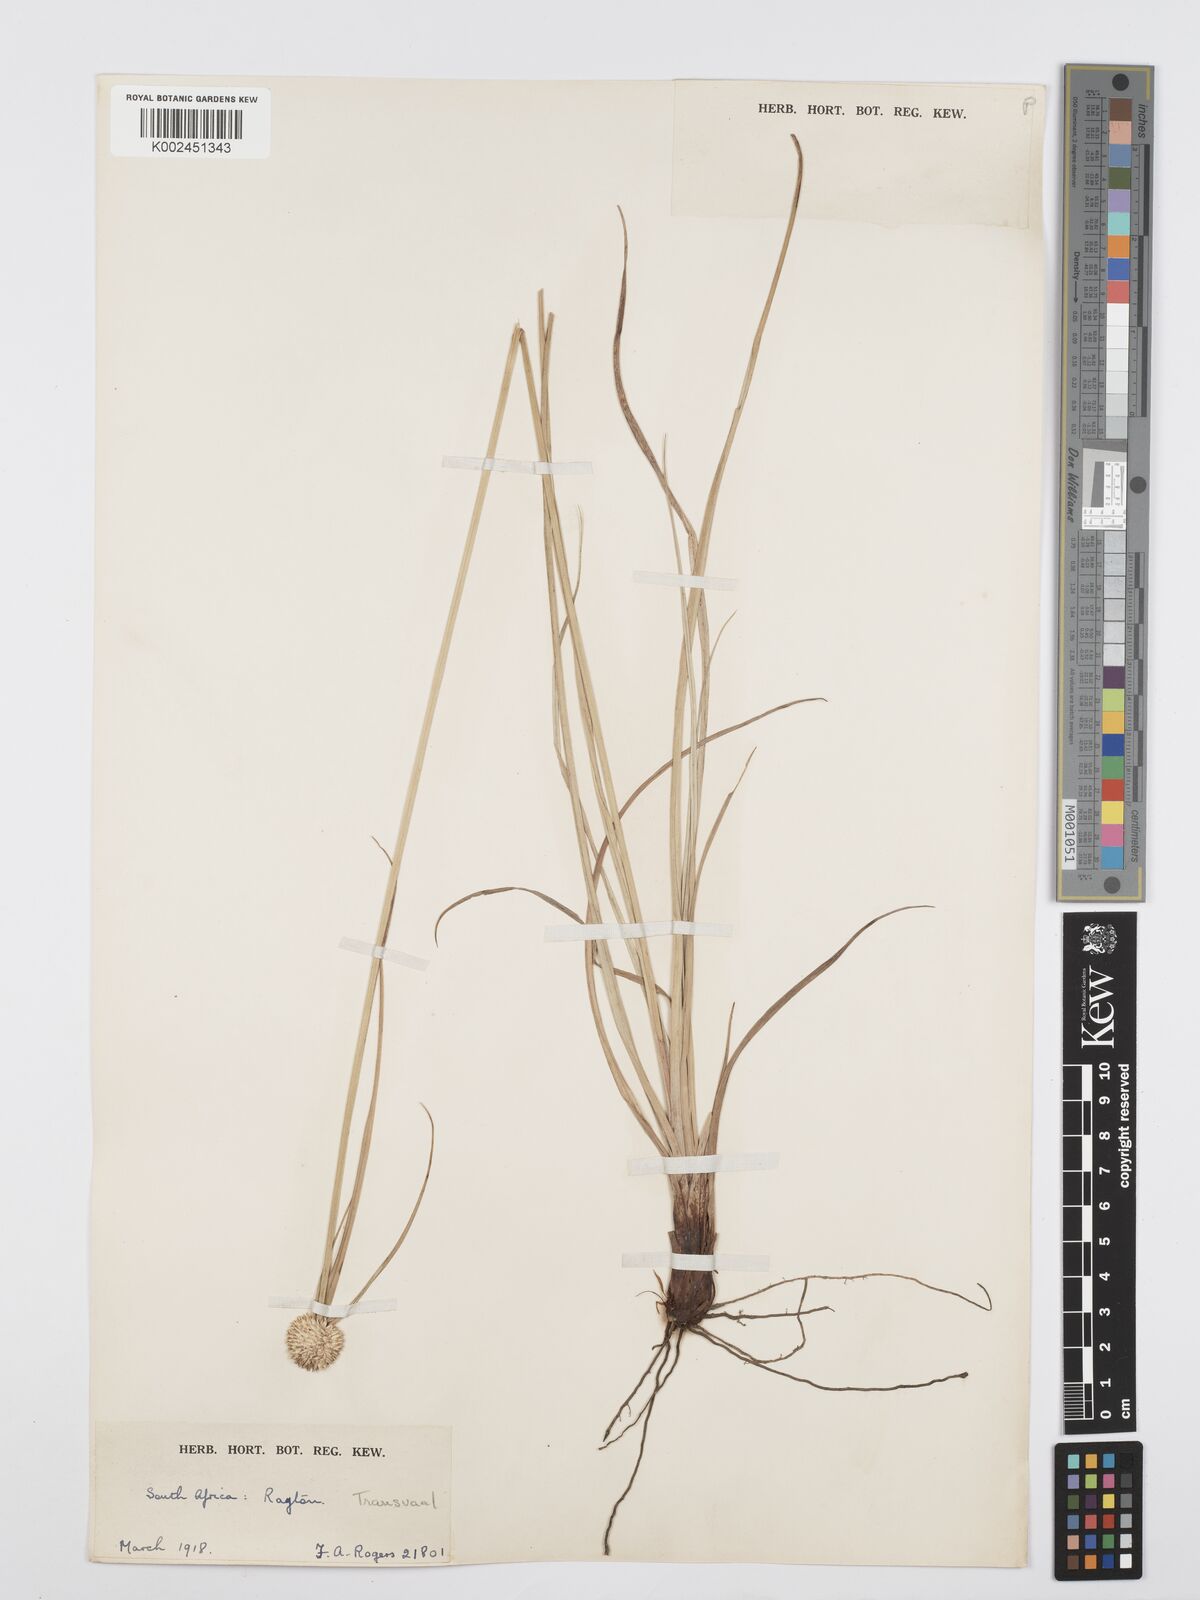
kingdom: Plantae
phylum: Tracheophyta
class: Liliopsida
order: Poales
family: Cyperaceae
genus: Cyperus
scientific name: Cyperus
